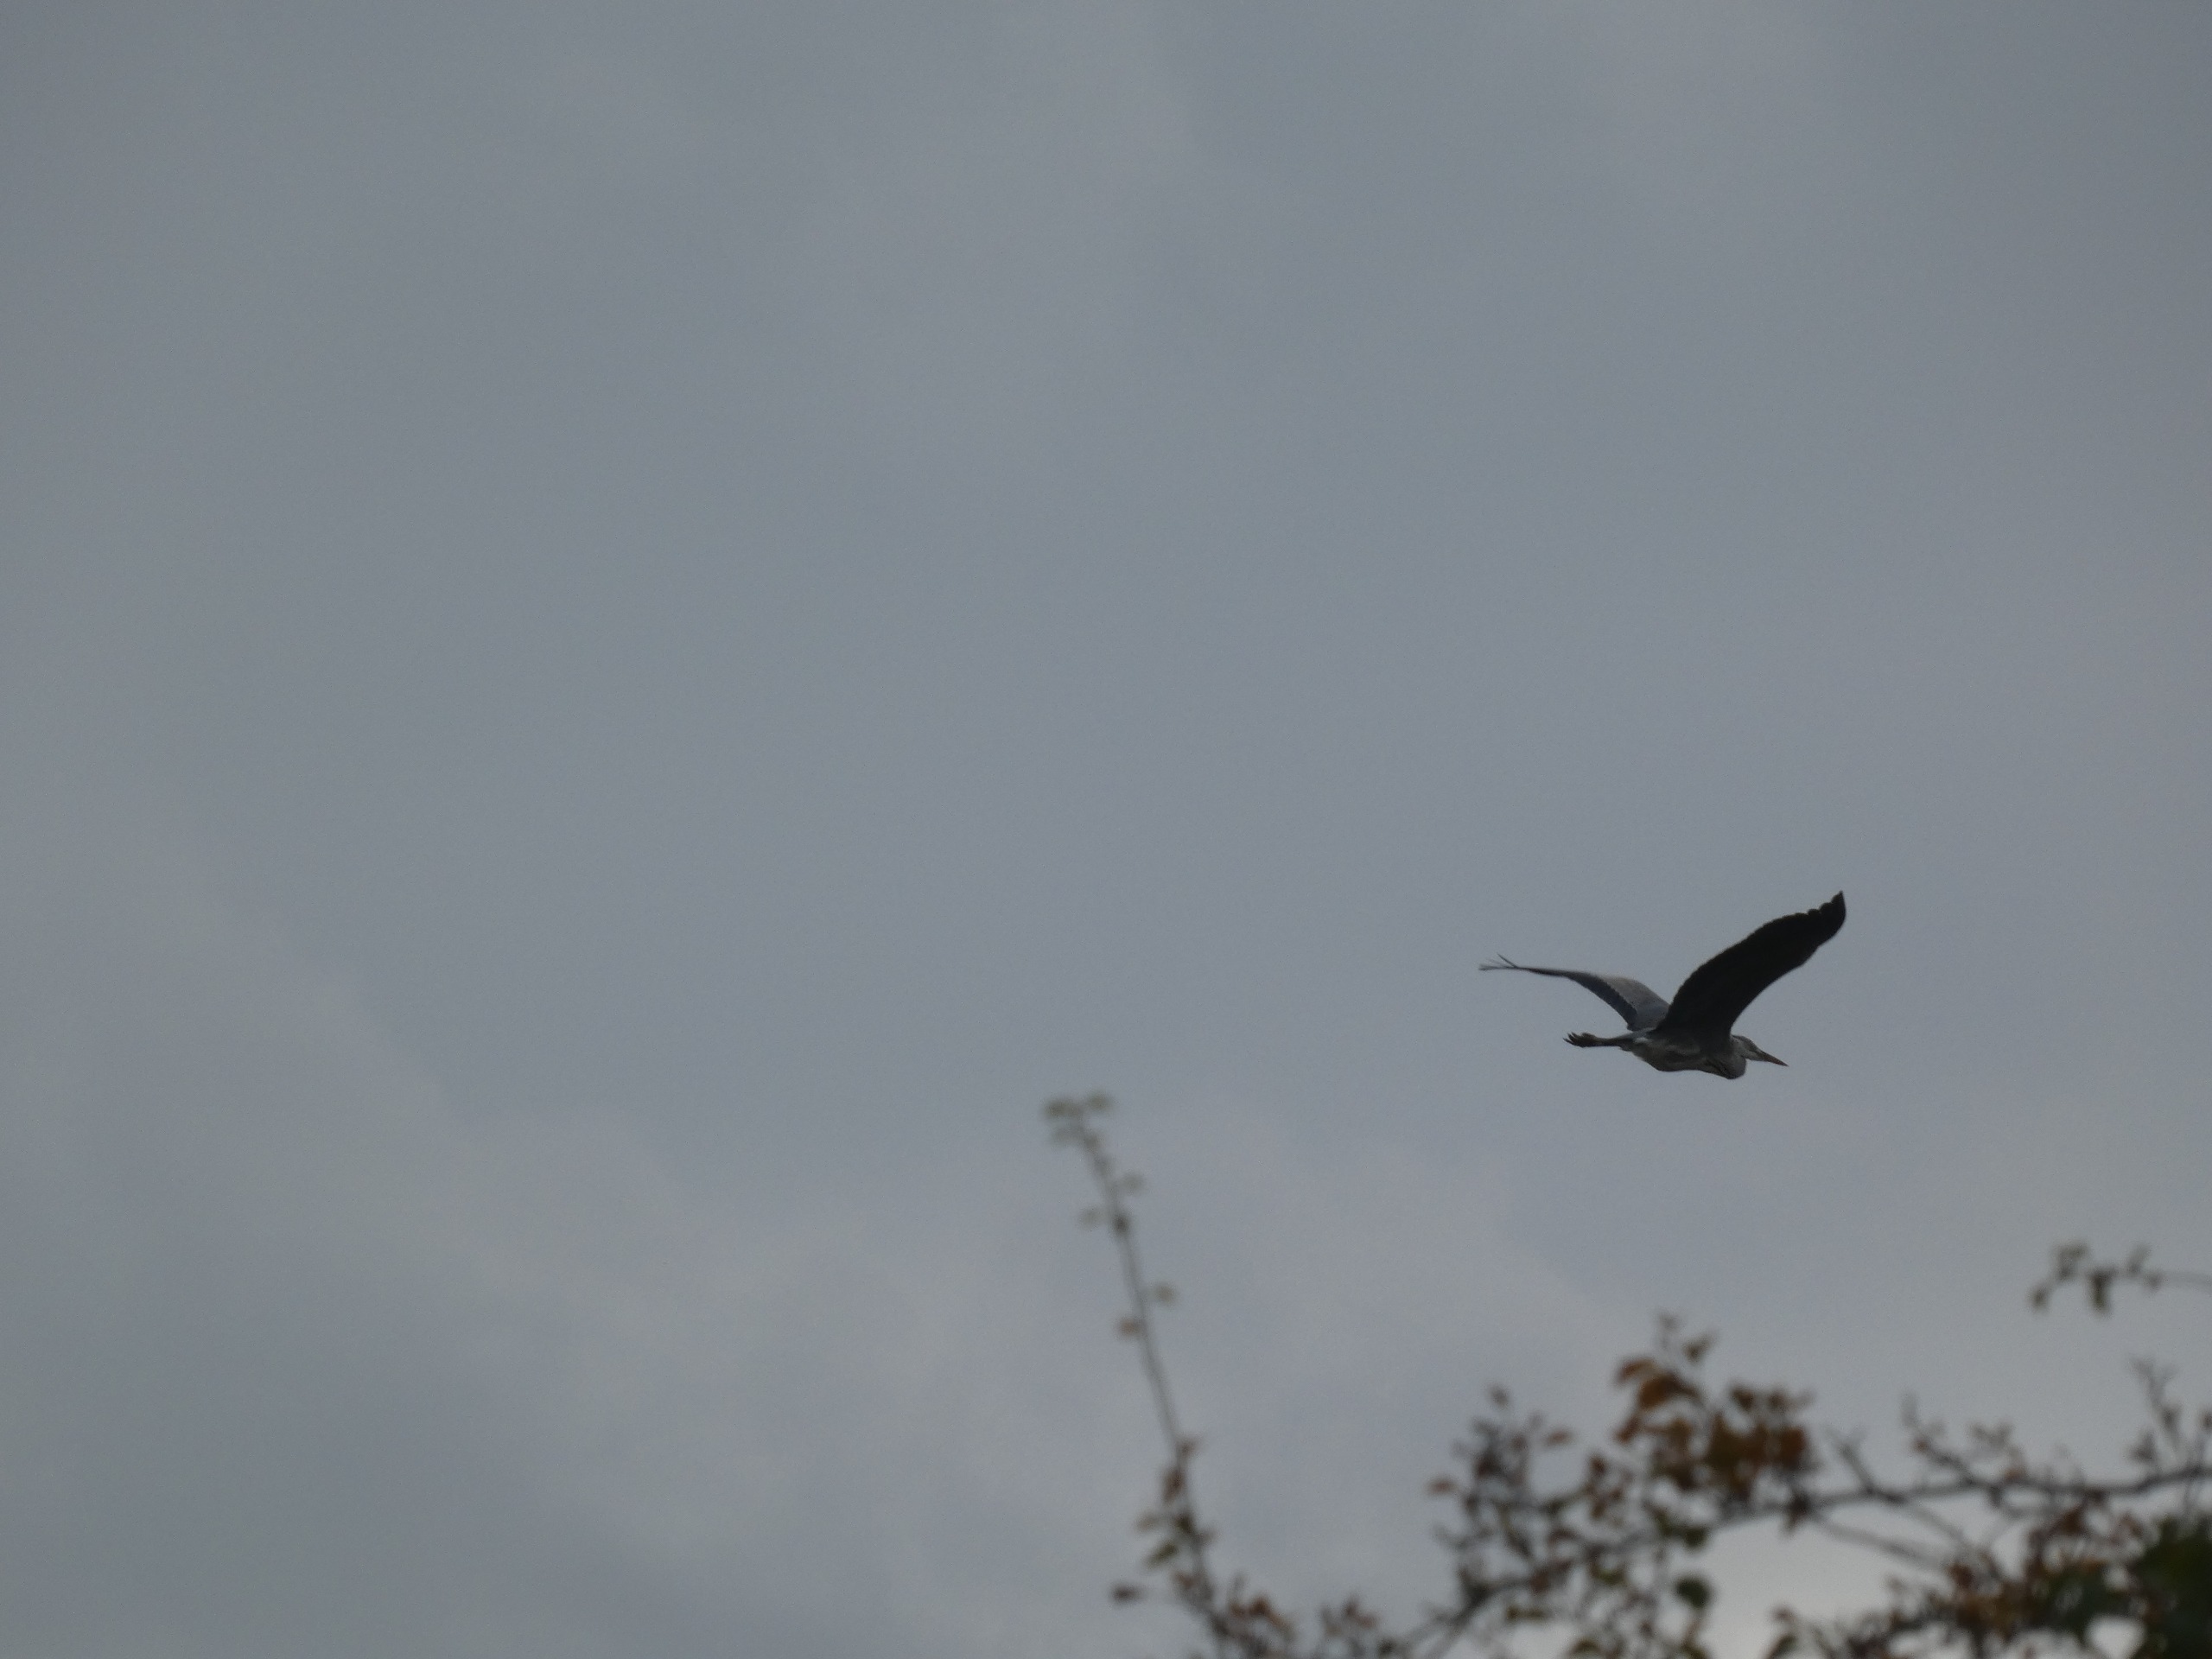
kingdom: Animalia
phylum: Chordata
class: Aves
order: Pelecaniformes
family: Ardeidae
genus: Ardea
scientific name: Ardea cinerea
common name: Fiskehejre
